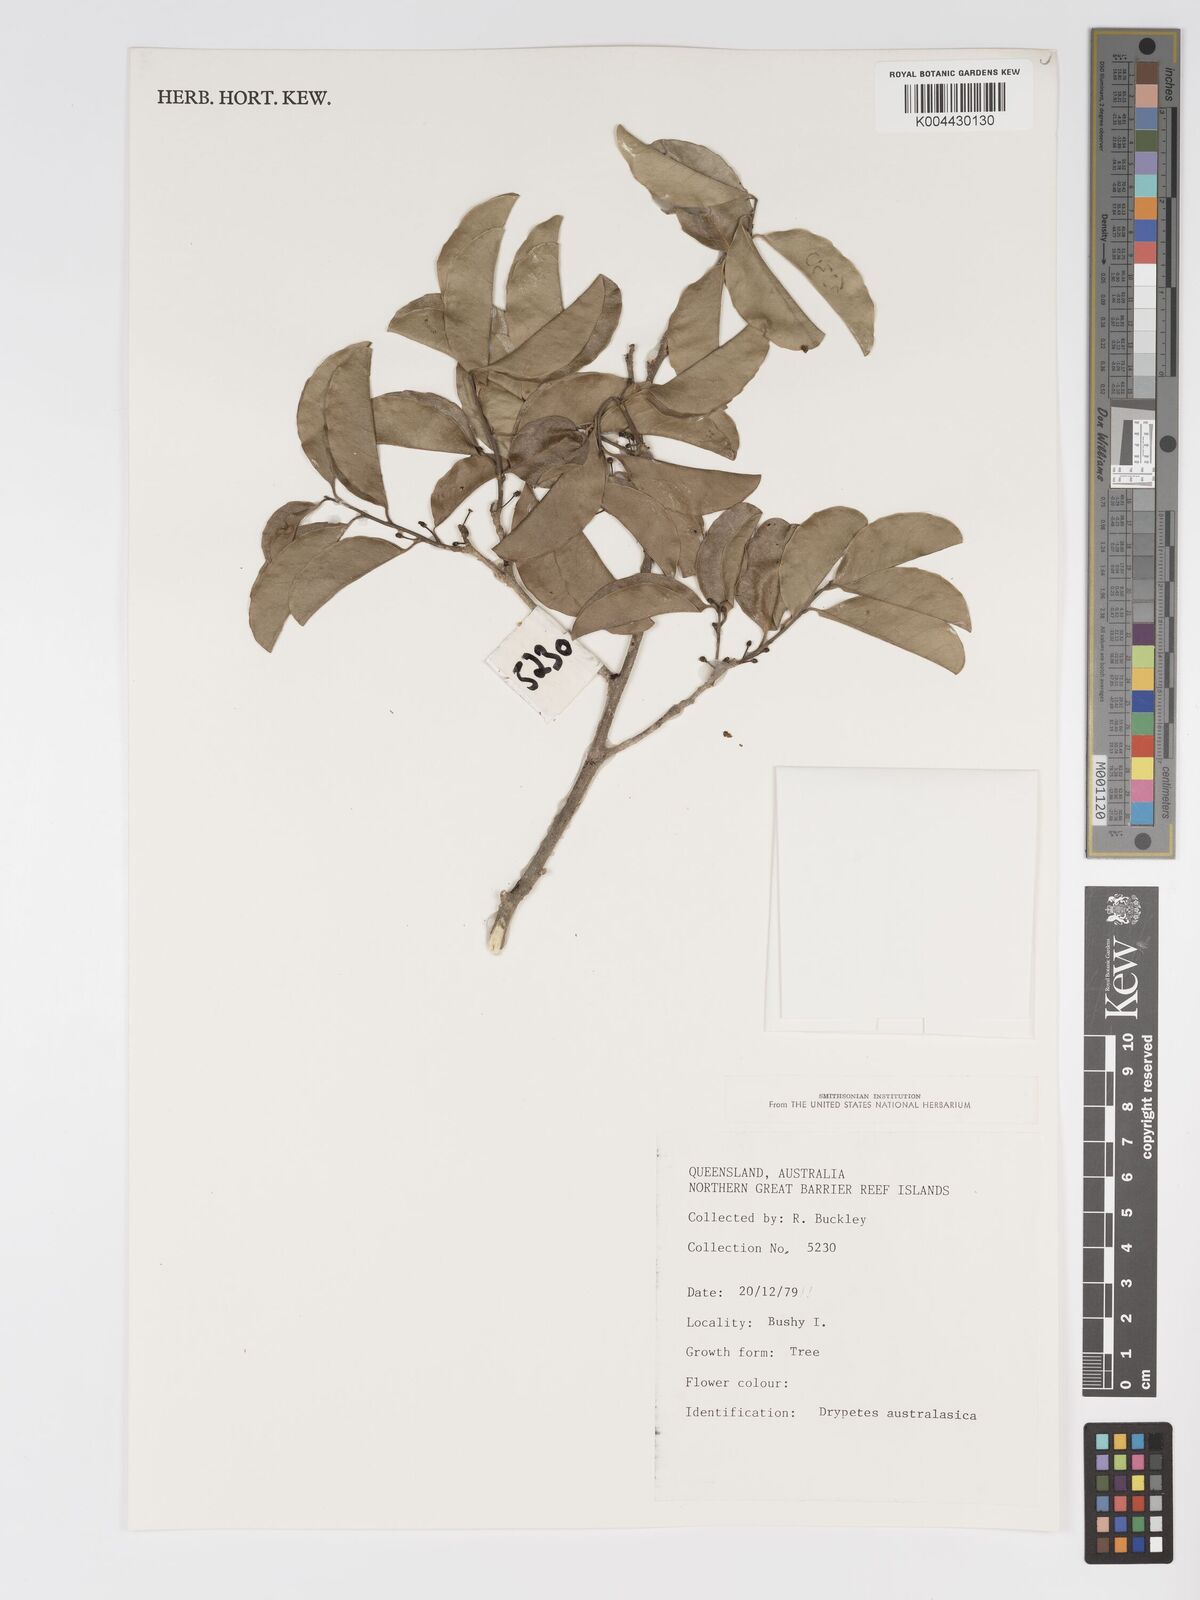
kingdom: Plantae
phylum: Tracheophyta
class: Magnoliopsida
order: Malpighiales
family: Putranjivaceae
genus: Drypetes
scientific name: Drypetes deplanchei
